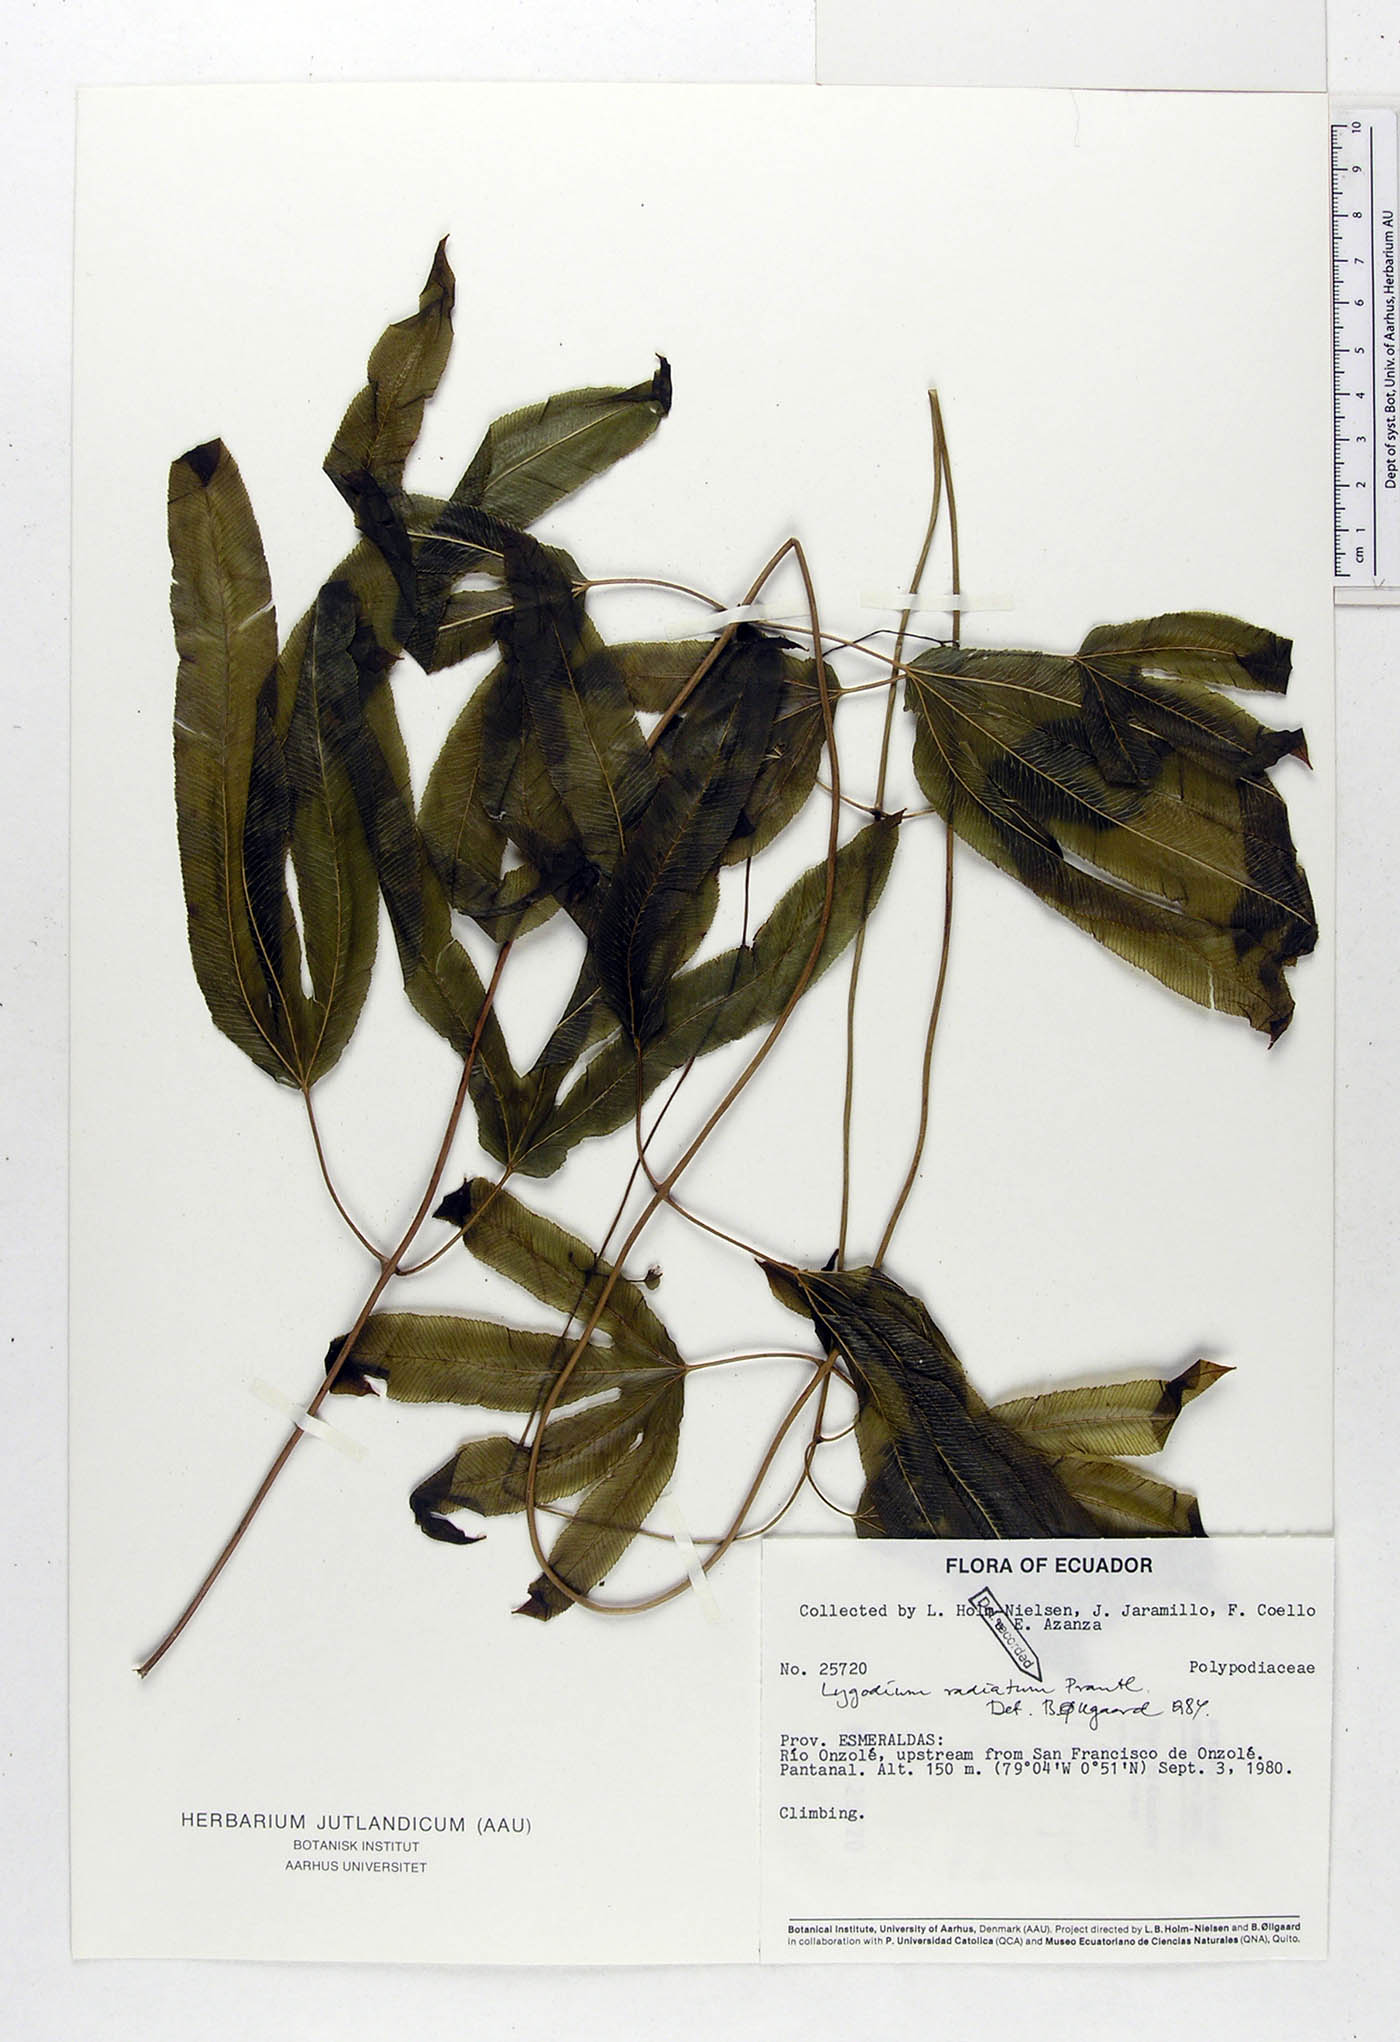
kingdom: Plantae
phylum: Tracheophyta
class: Polypodiopsida
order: Schizaeales
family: Schizaeaceae
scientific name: Schizaeaceae
